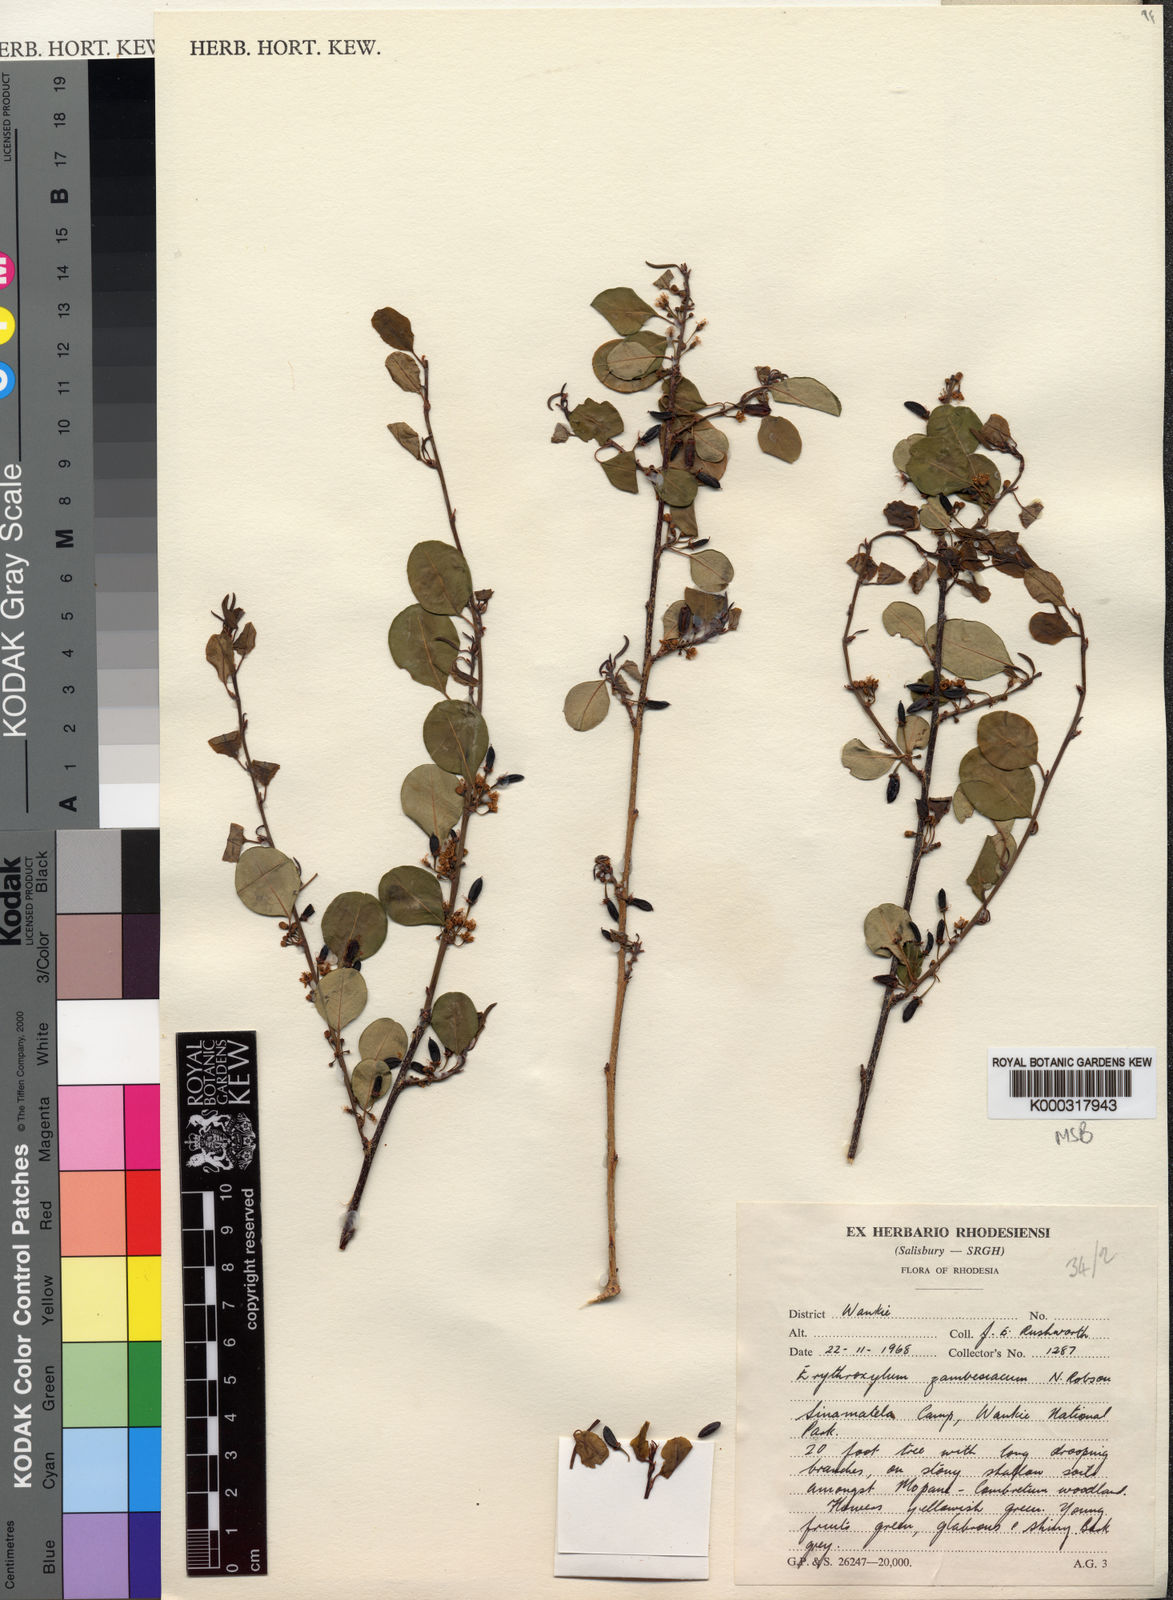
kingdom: Plantae
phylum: Tracheophyta
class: Magnoliopsida
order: Malpighiales
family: Erythroxylaceae
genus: Erythroxylum
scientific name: Erythroxylum zambesiacum
